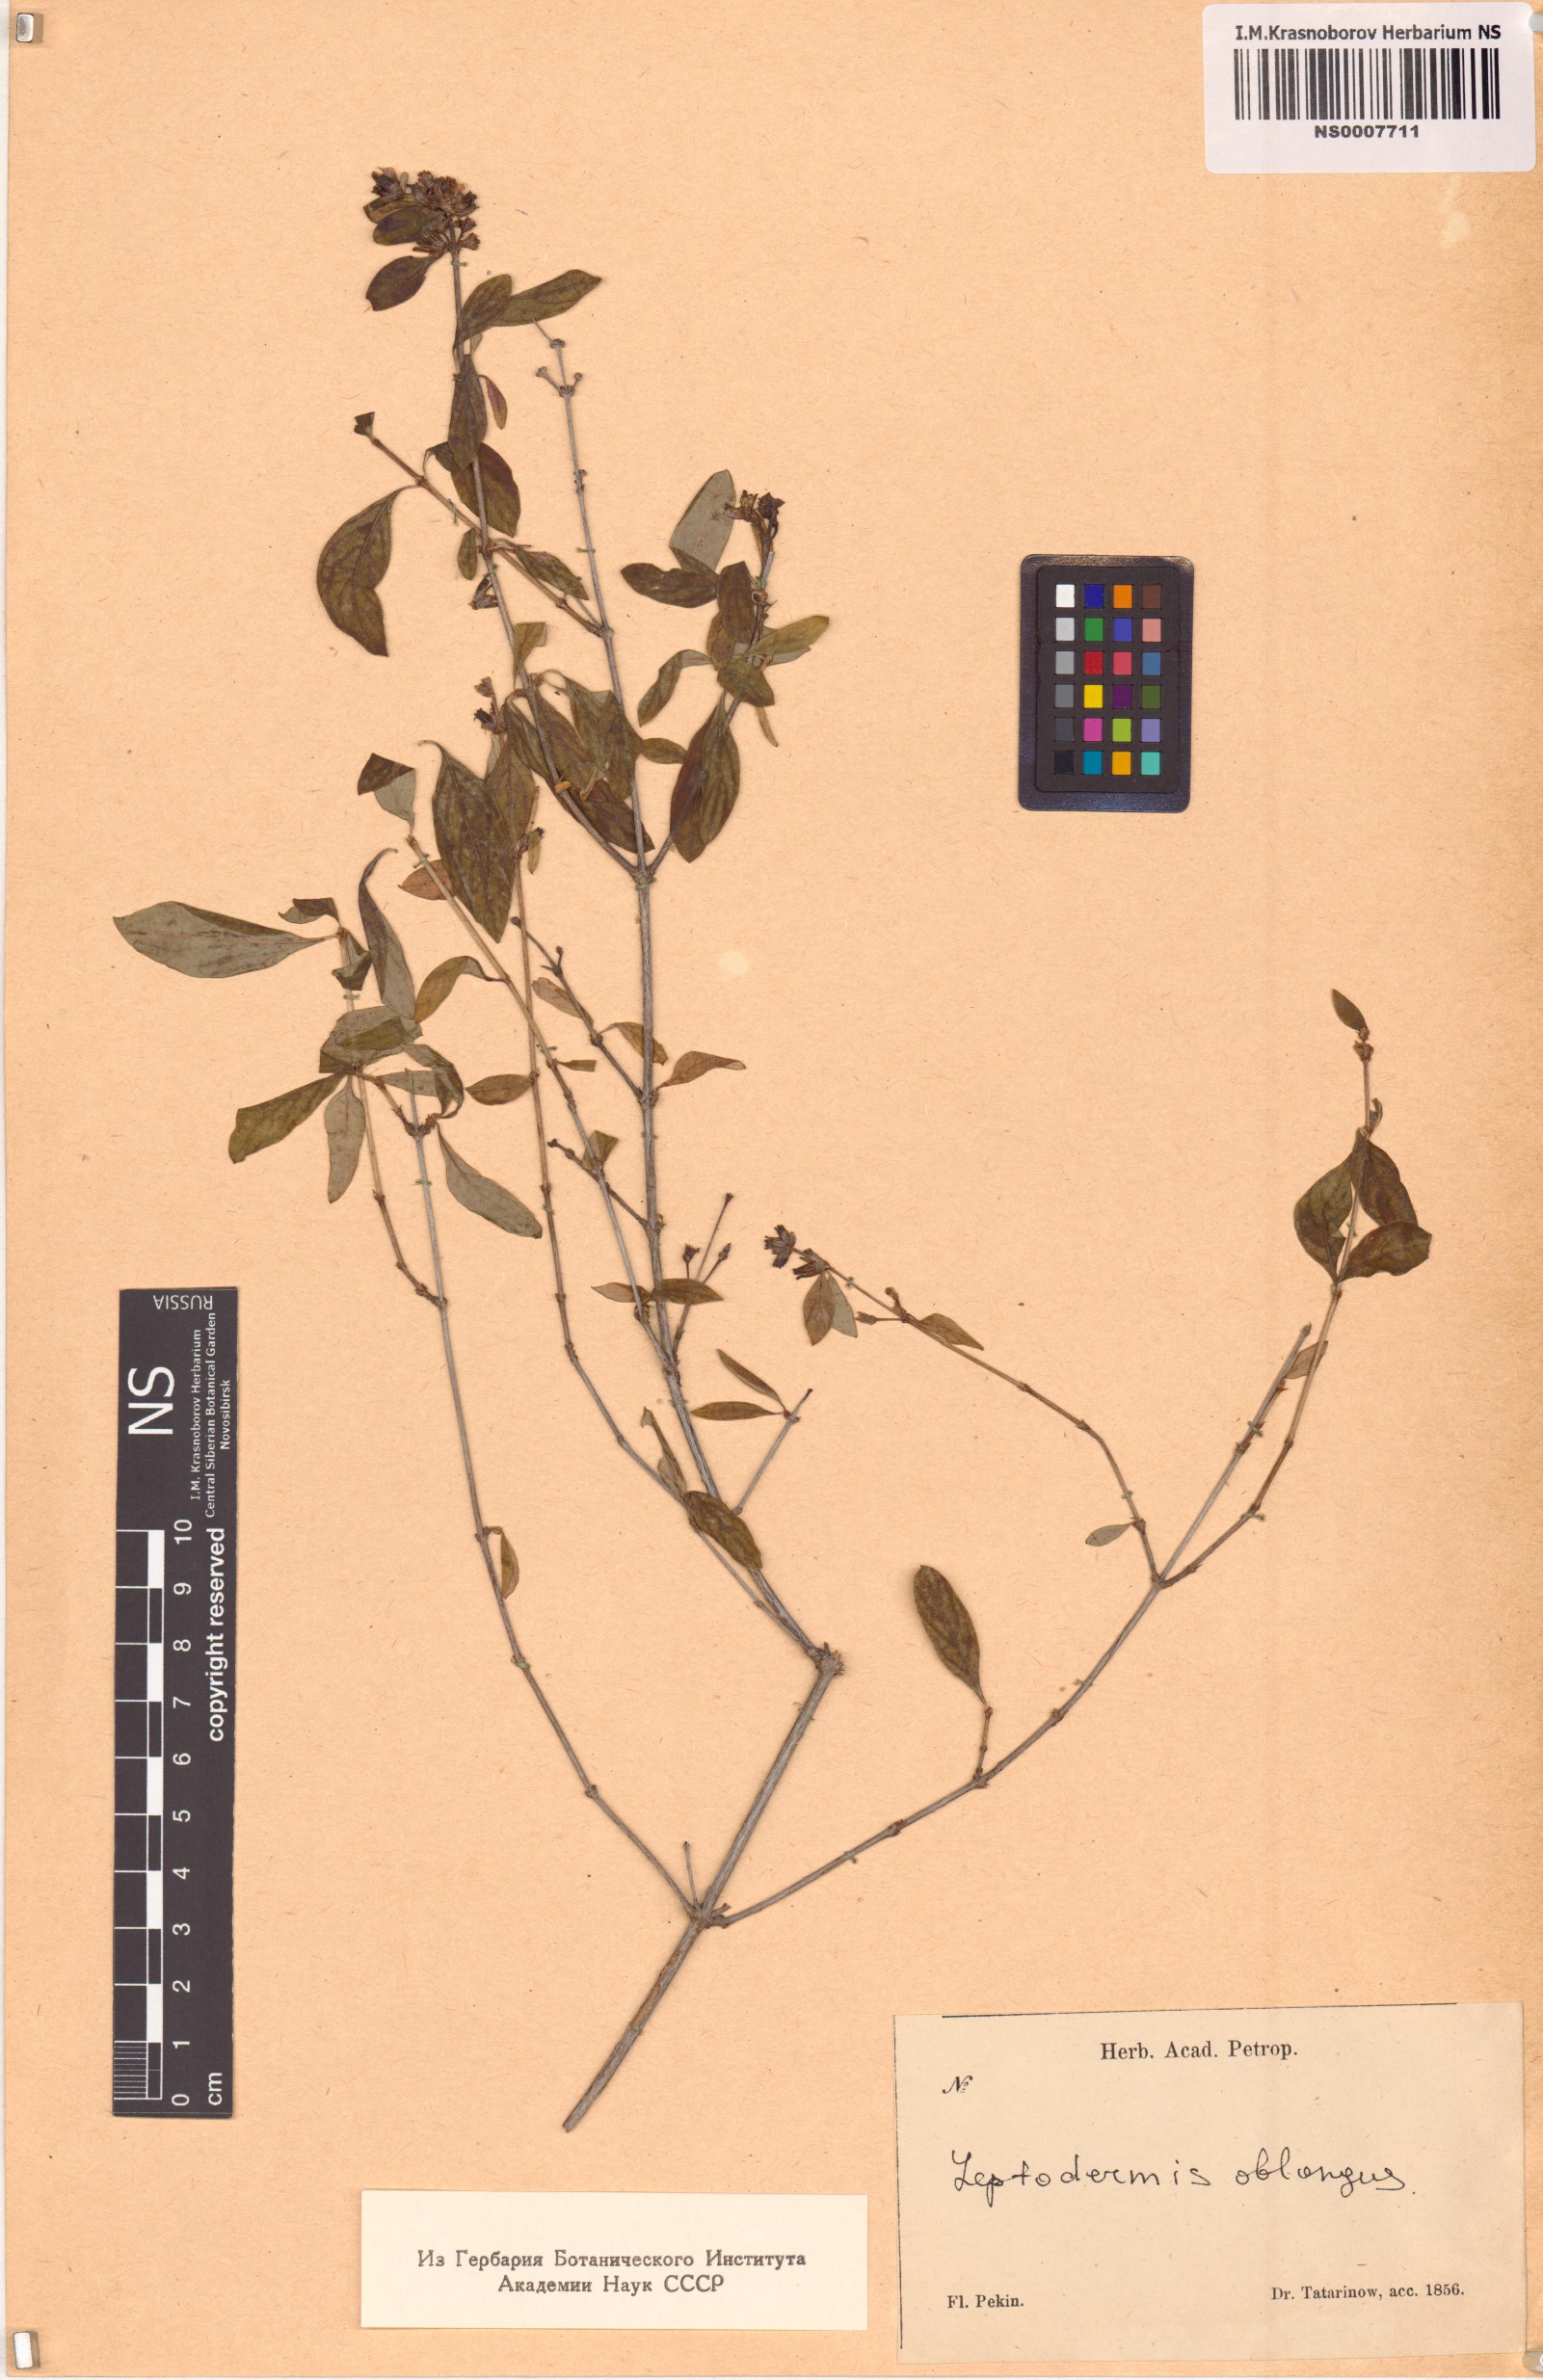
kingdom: Plantae
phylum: Tracheophyta
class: Magnoliopsida
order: Gentianales
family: Rubiaceae
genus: Leptodermis
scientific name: Leptodermis oblonga
